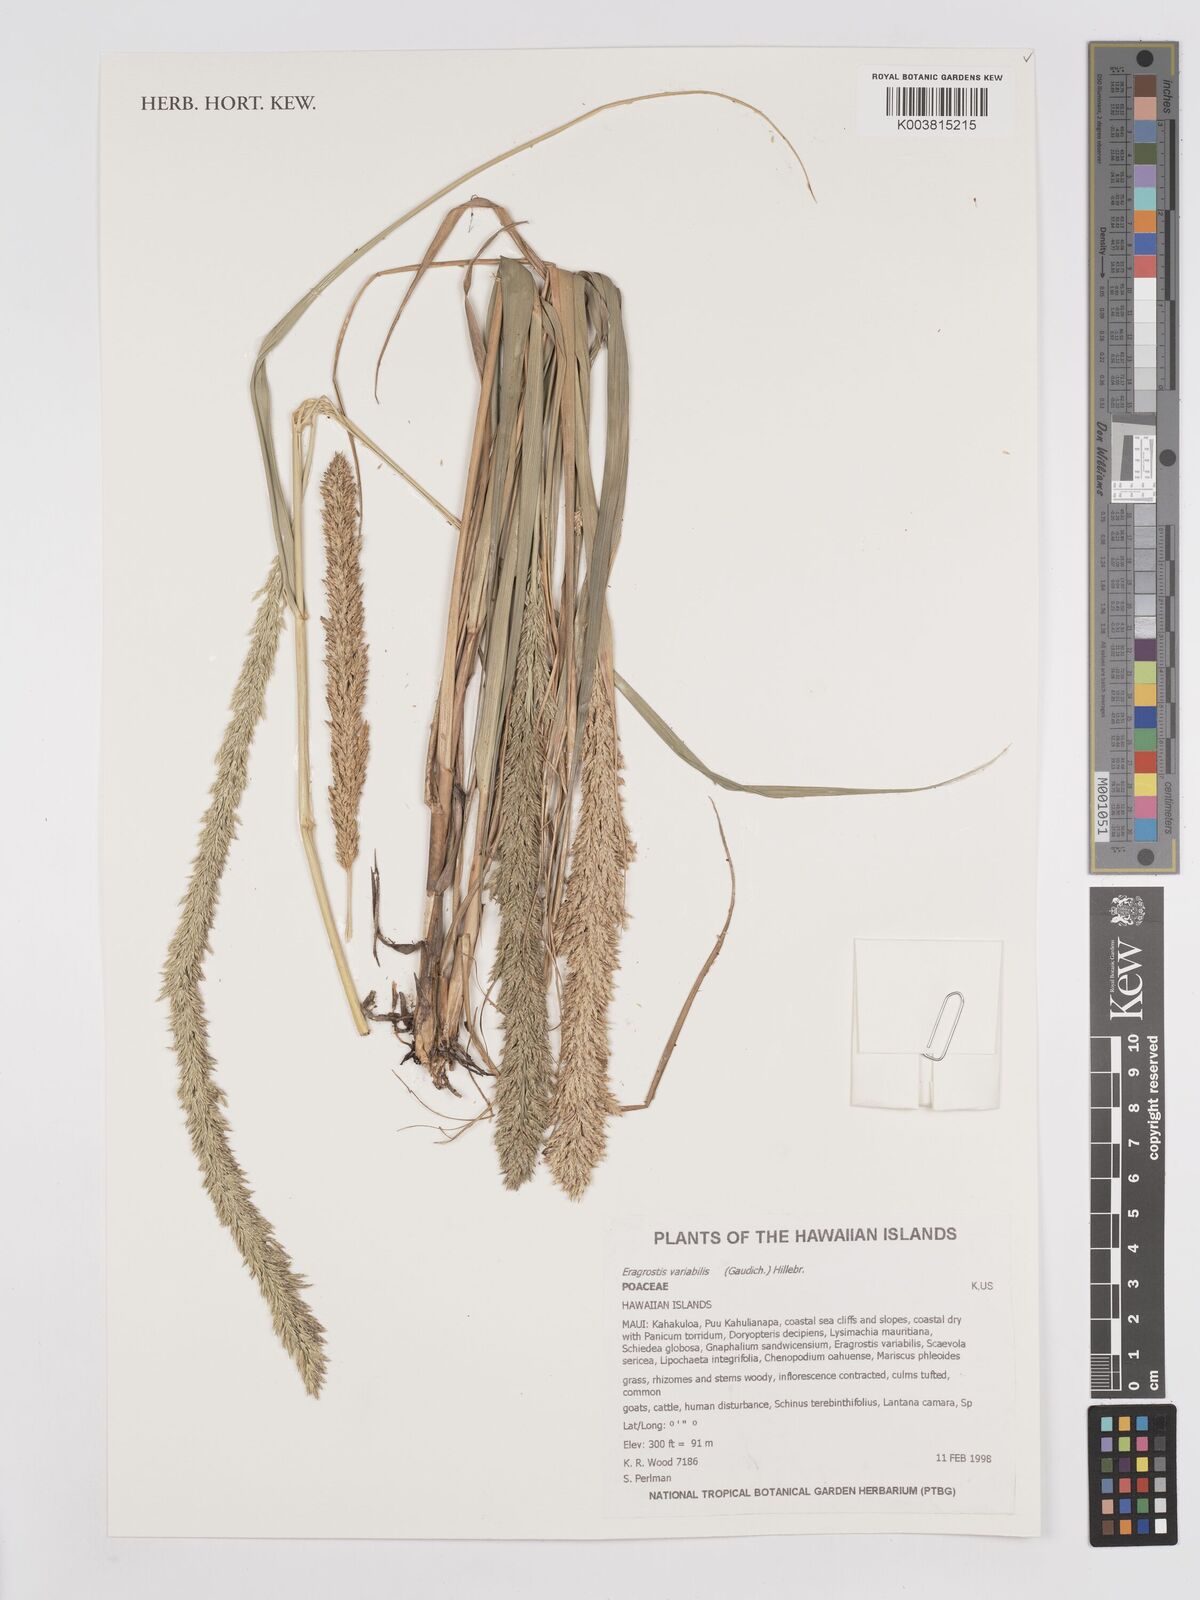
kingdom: Plantae
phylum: Tracheophyta
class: Liliopsida
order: Poales
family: Poaceae
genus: Eragrostis
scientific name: Eragrostis variabilis
